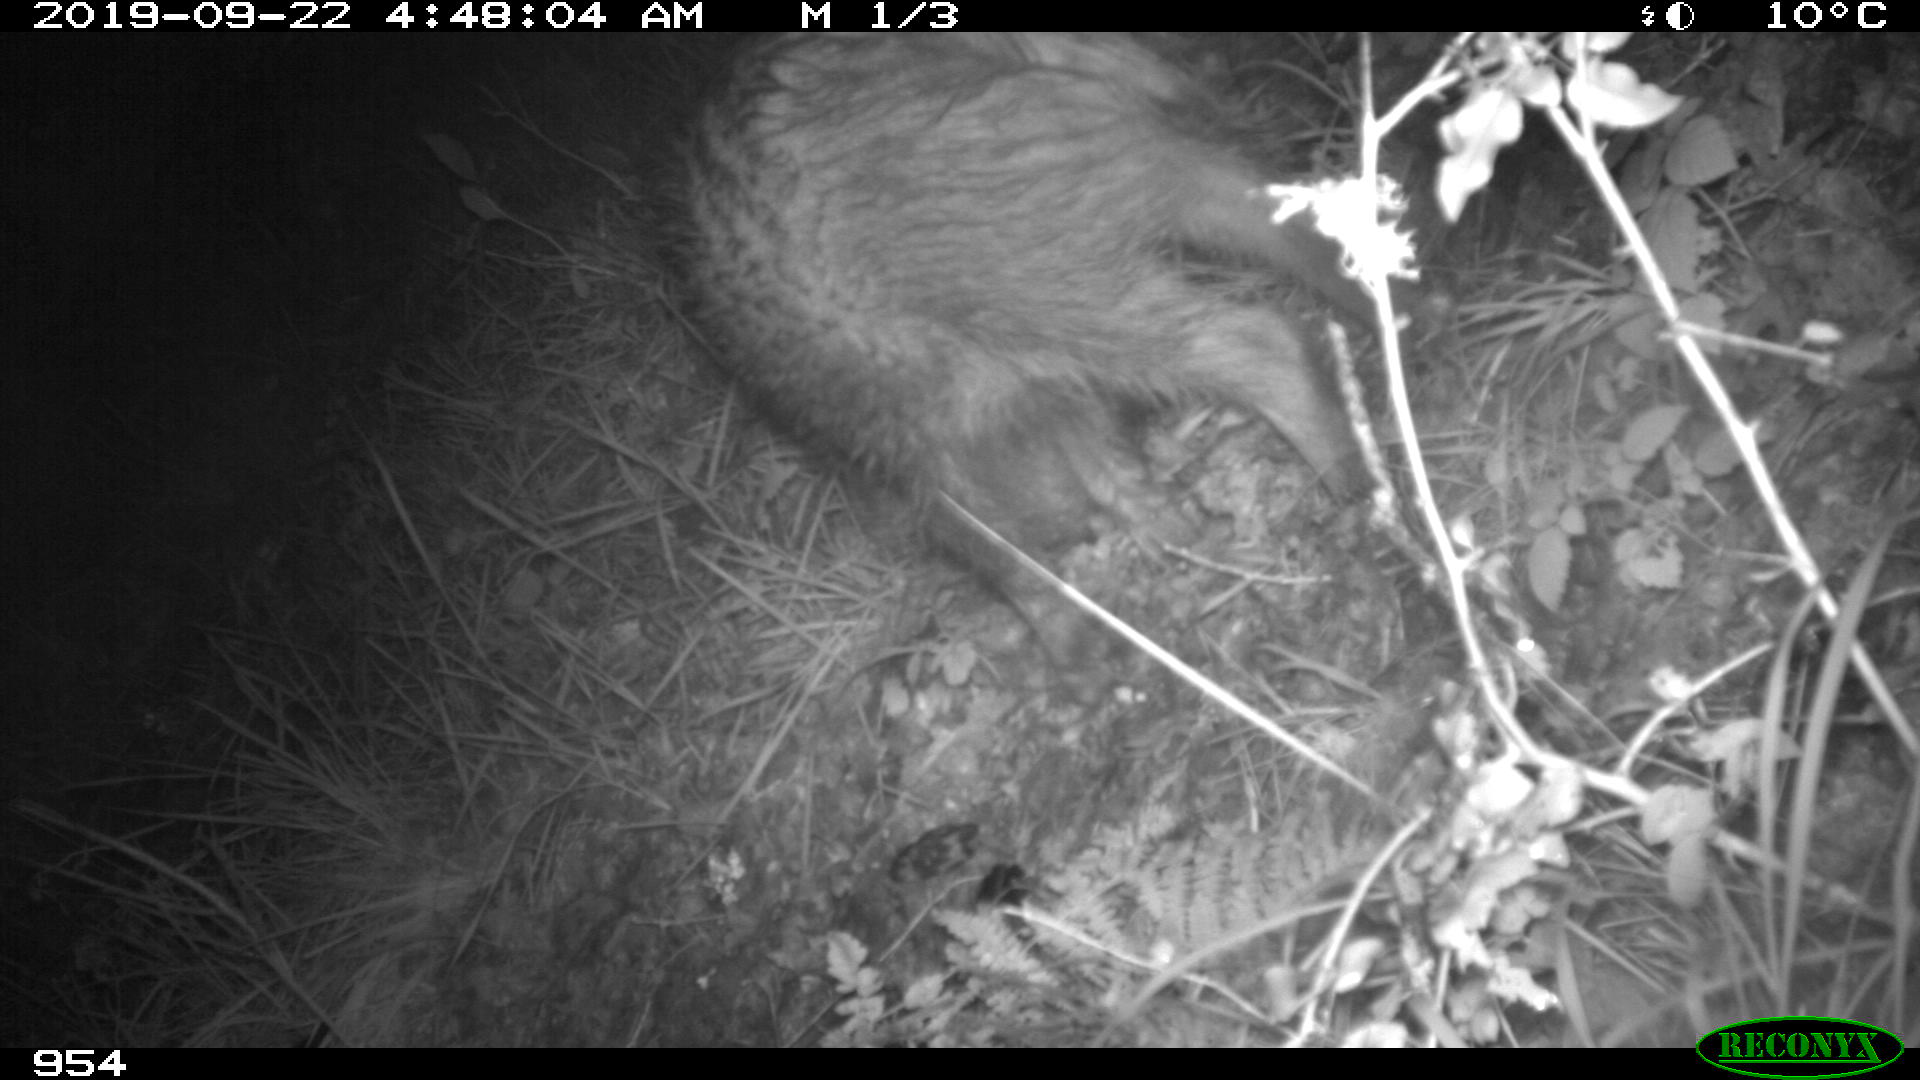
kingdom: Animalia
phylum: Chordata
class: Mammalia
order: Artiodactyla
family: Suidae
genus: Sus
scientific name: Sus scrofa
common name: Wild boar
